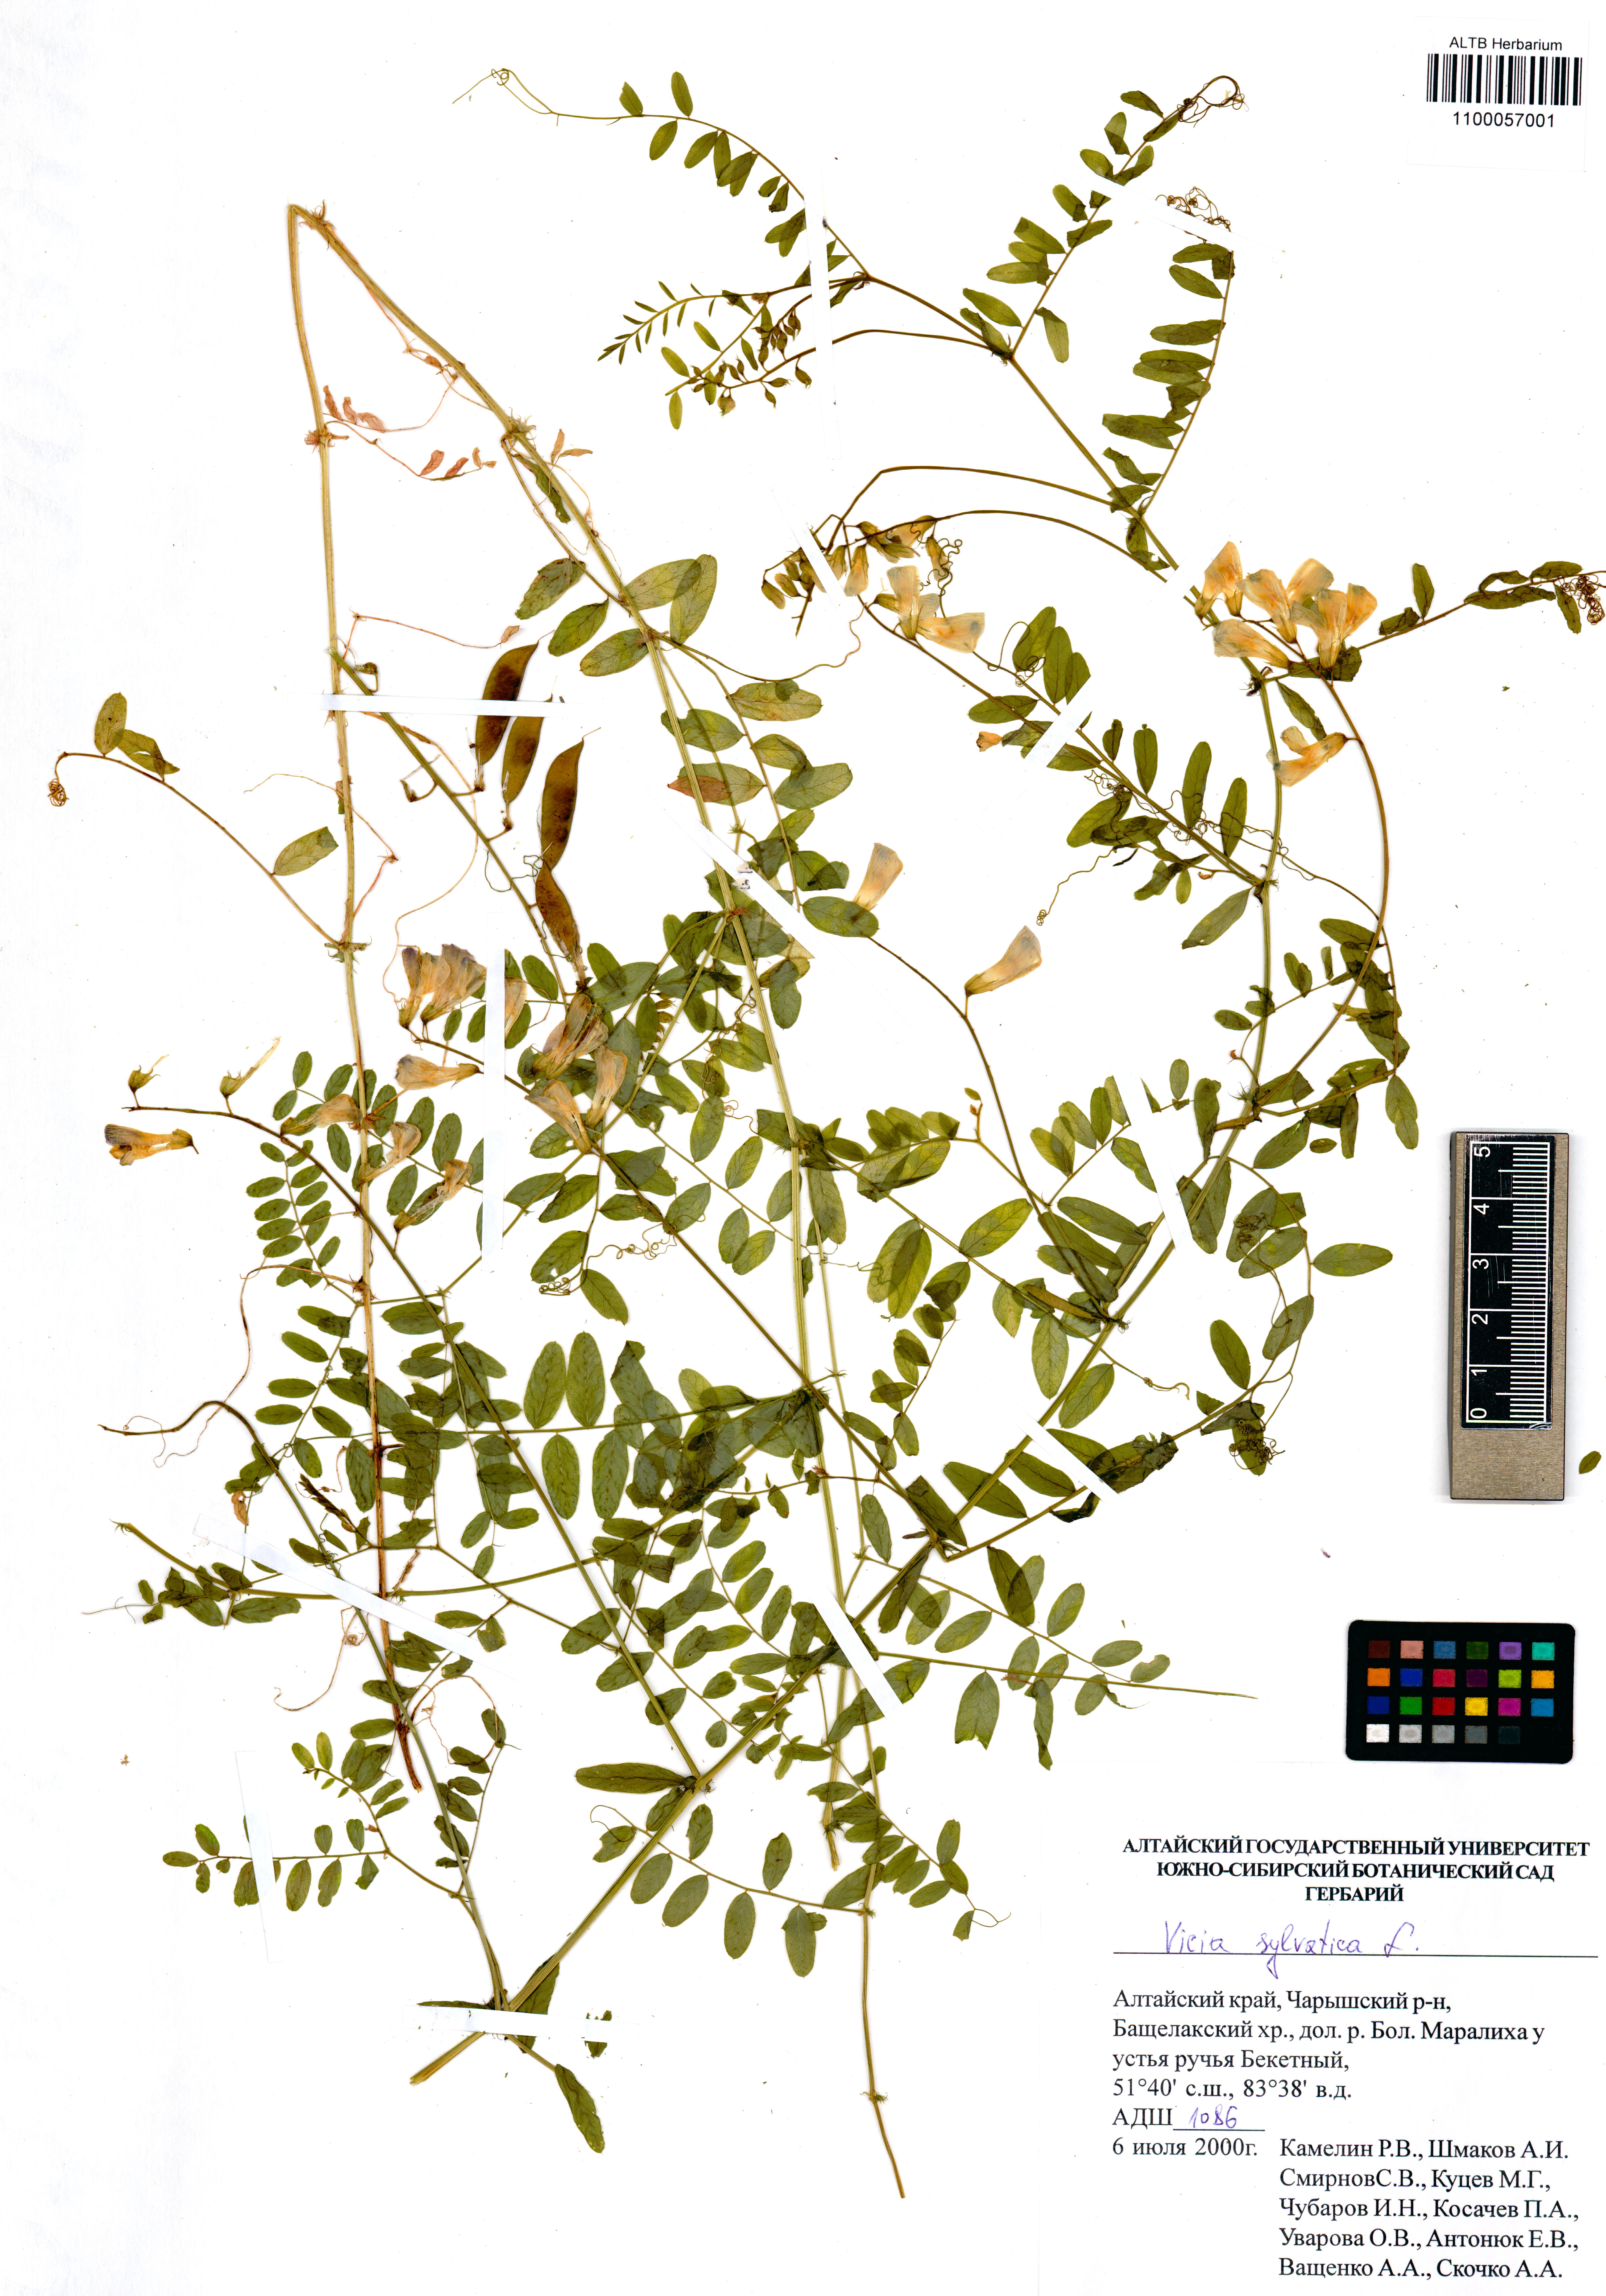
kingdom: Plantae
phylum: Tracheophyta
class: Magnoliopsida
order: Fabales
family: Fabaceae
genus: Vicia
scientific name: Vicia sylvatica
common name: Wood vetch
